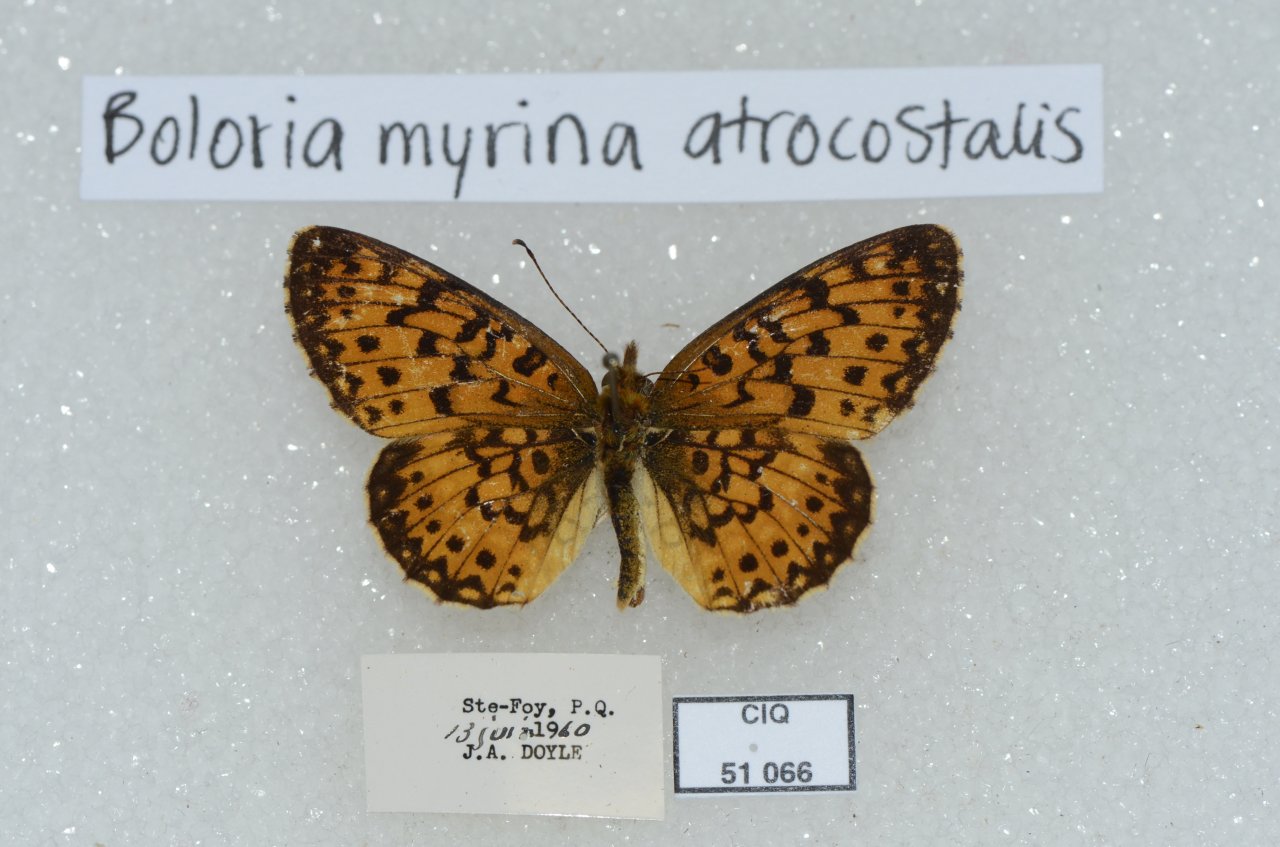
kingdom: Animalia
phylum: Arthropoda
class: Insecta
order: Lepidoptera
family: Nymphalidae
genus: Boloria
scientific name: Boloria selene
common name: Silver-bordered Fritillary
